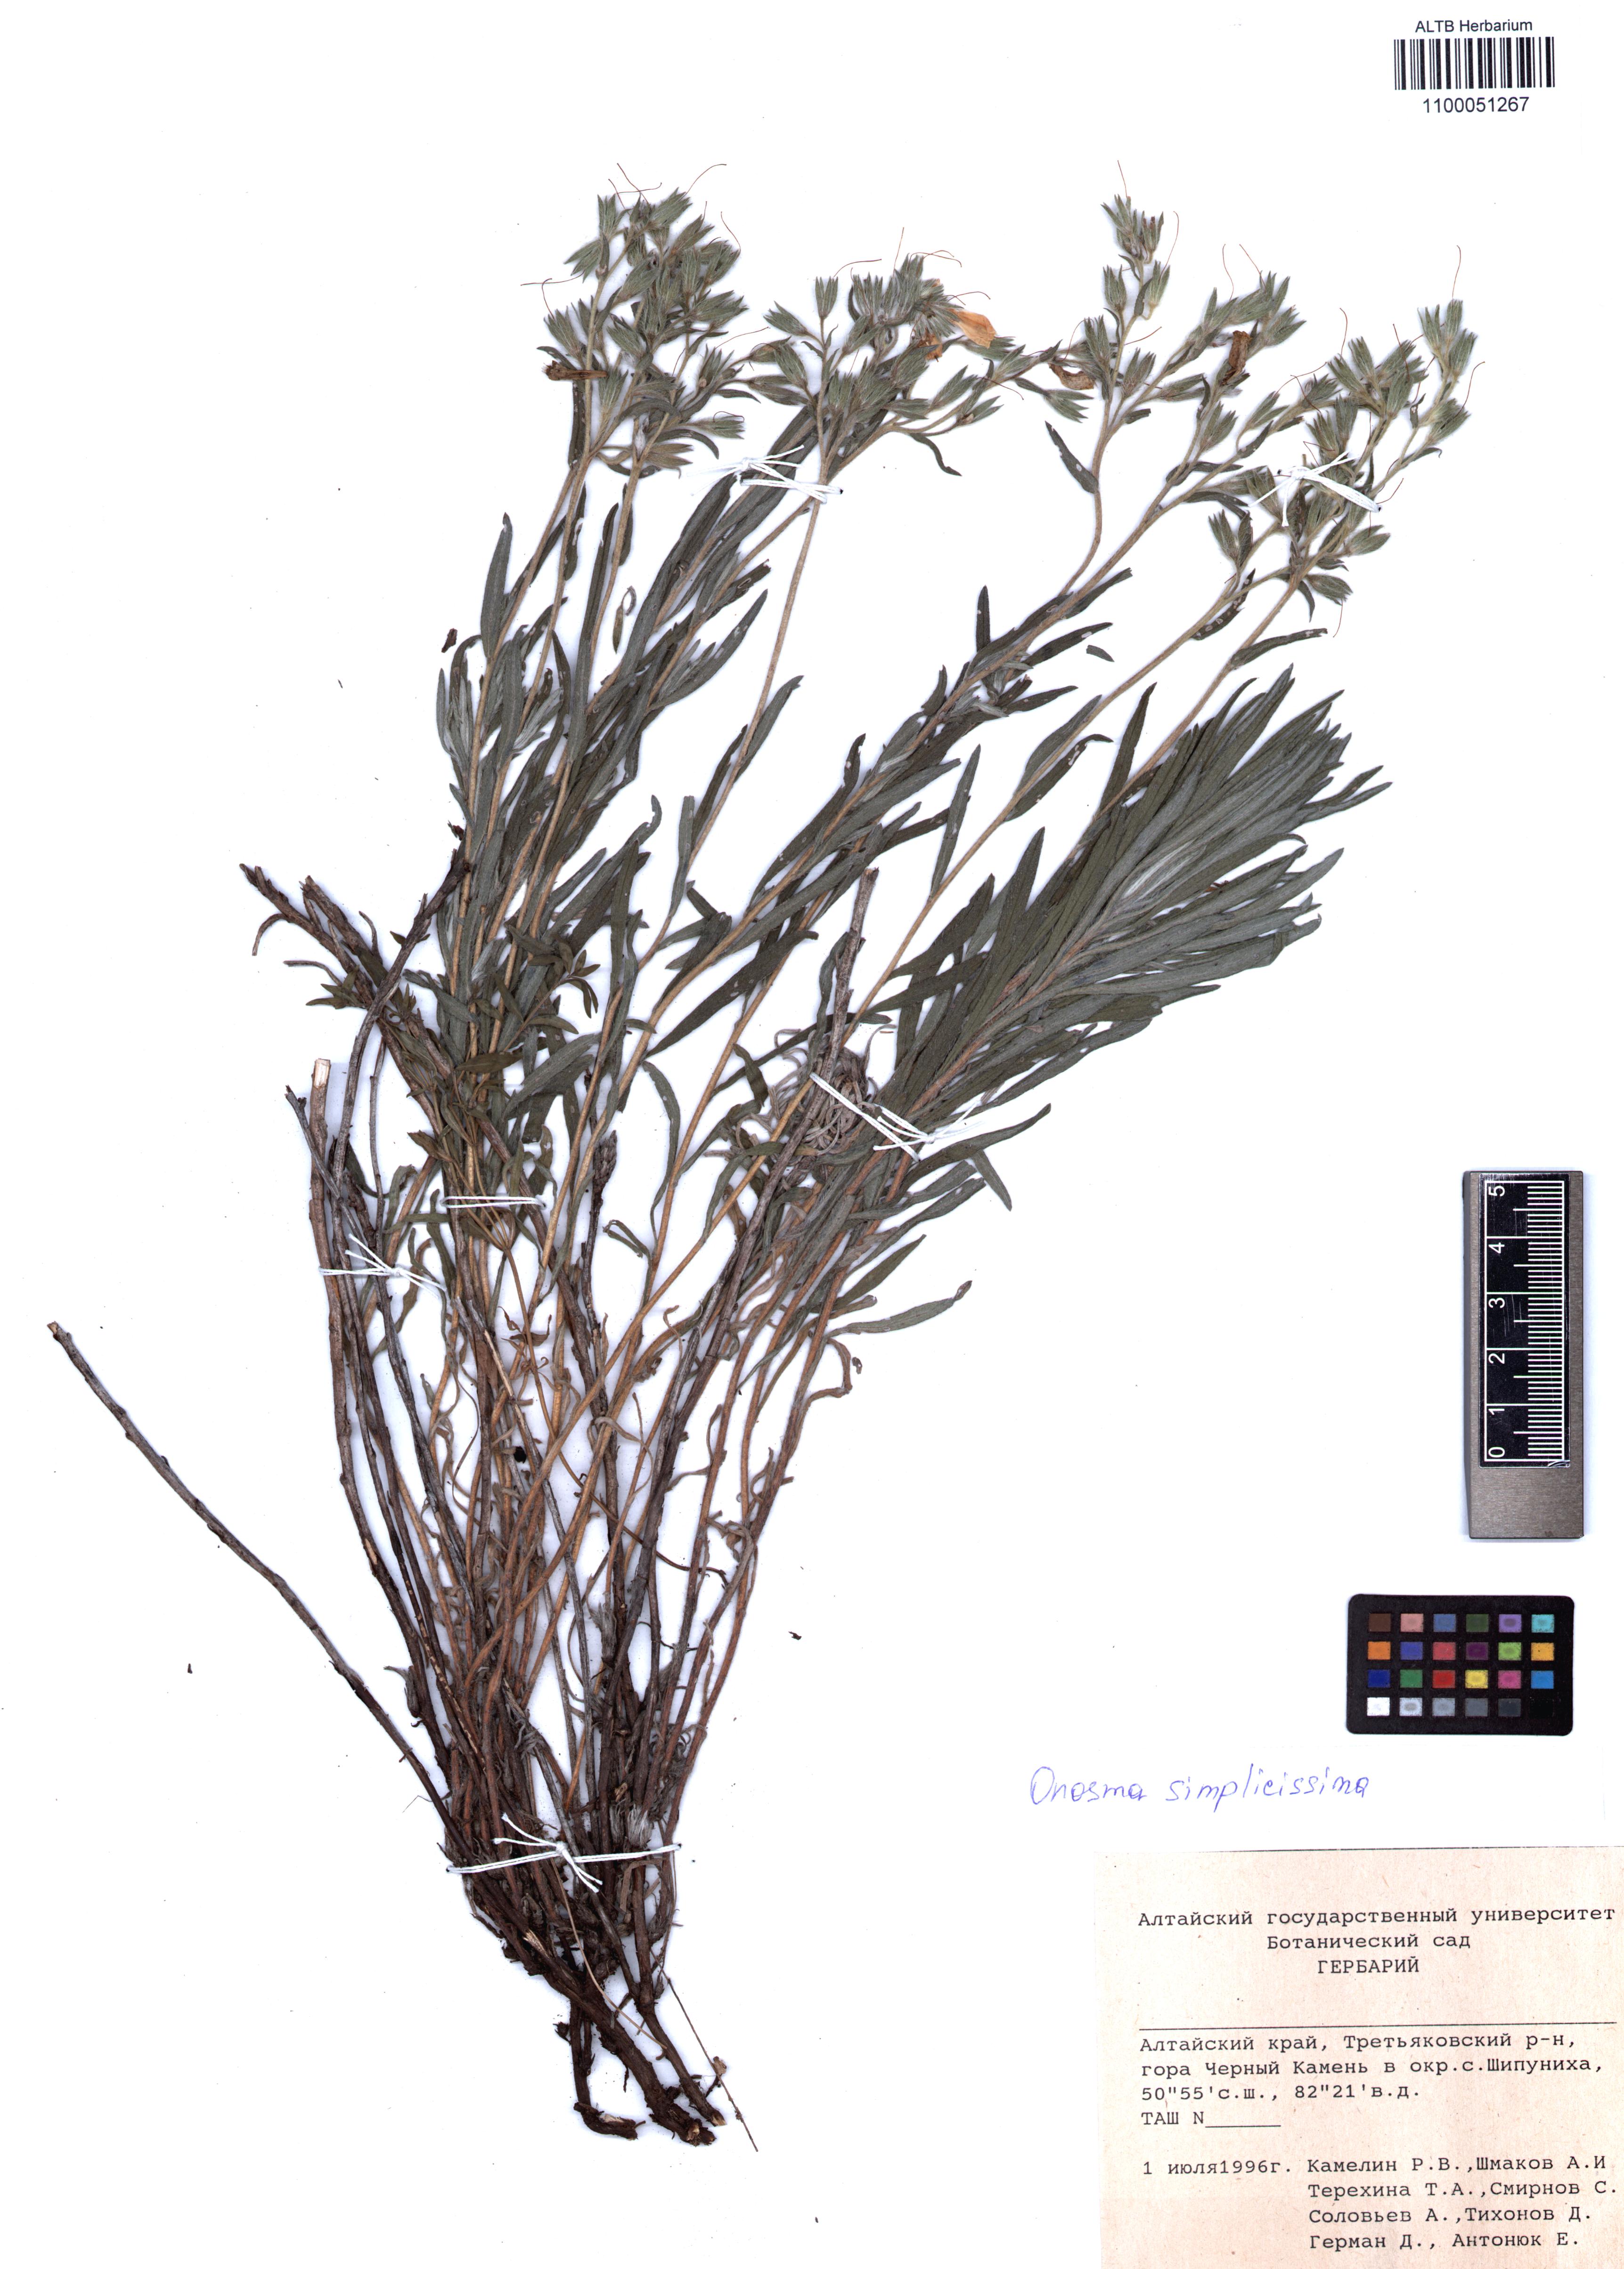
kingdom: Plantae
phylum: Tracheophyta
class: Magnoliopsida
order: Boraginales
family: Boraginaceae
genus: Onosma
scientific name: Onosma simplicissima
